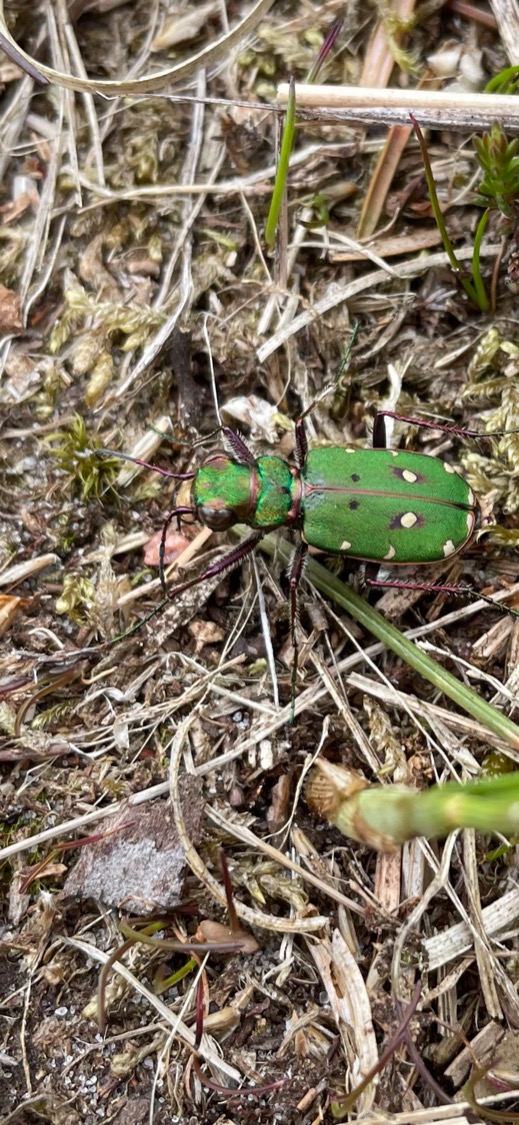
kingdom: Animalia
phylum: Arthropoda
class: Insecta
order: Coleoptera
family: Carabidae
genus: Cicindela
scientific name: Cicindela campestris
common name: Grøn sandspringer
